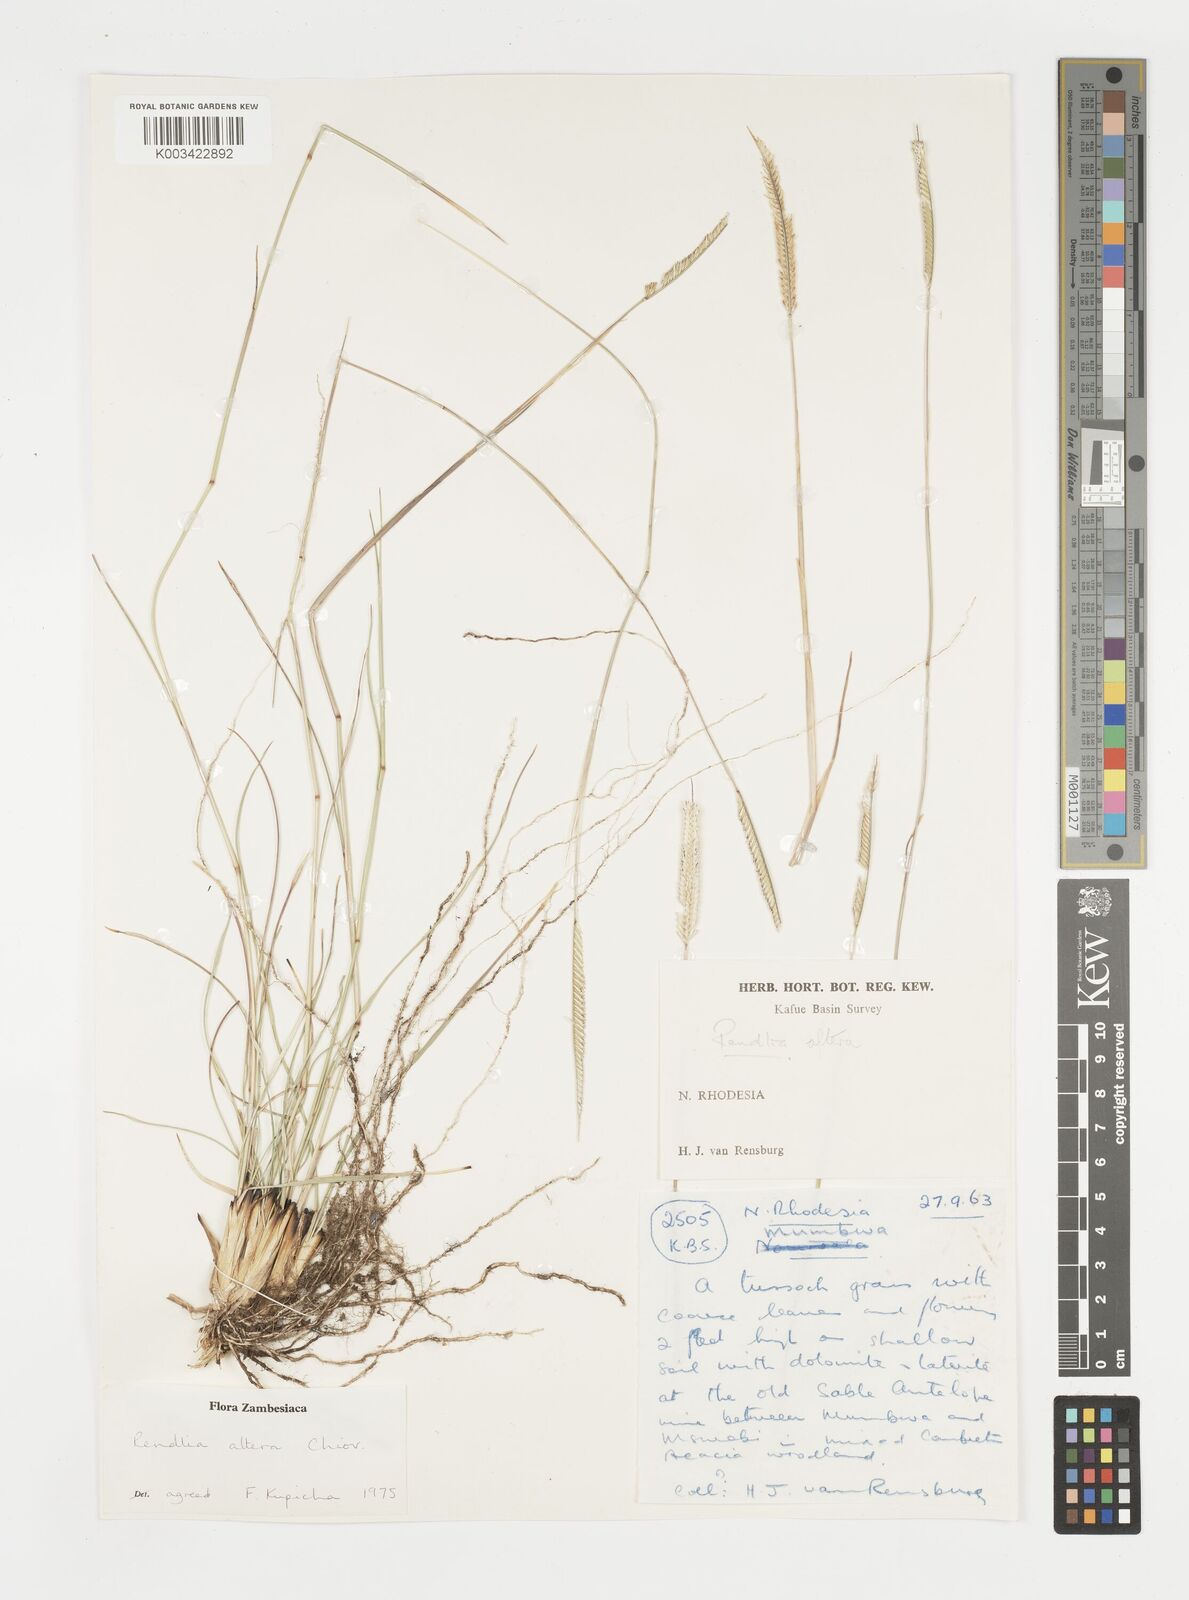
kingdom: Plantae
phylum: Tracheophyta
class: Liliopsida
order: Poales
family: Poaceae
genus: Microchloa
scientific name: Microchloa altera
